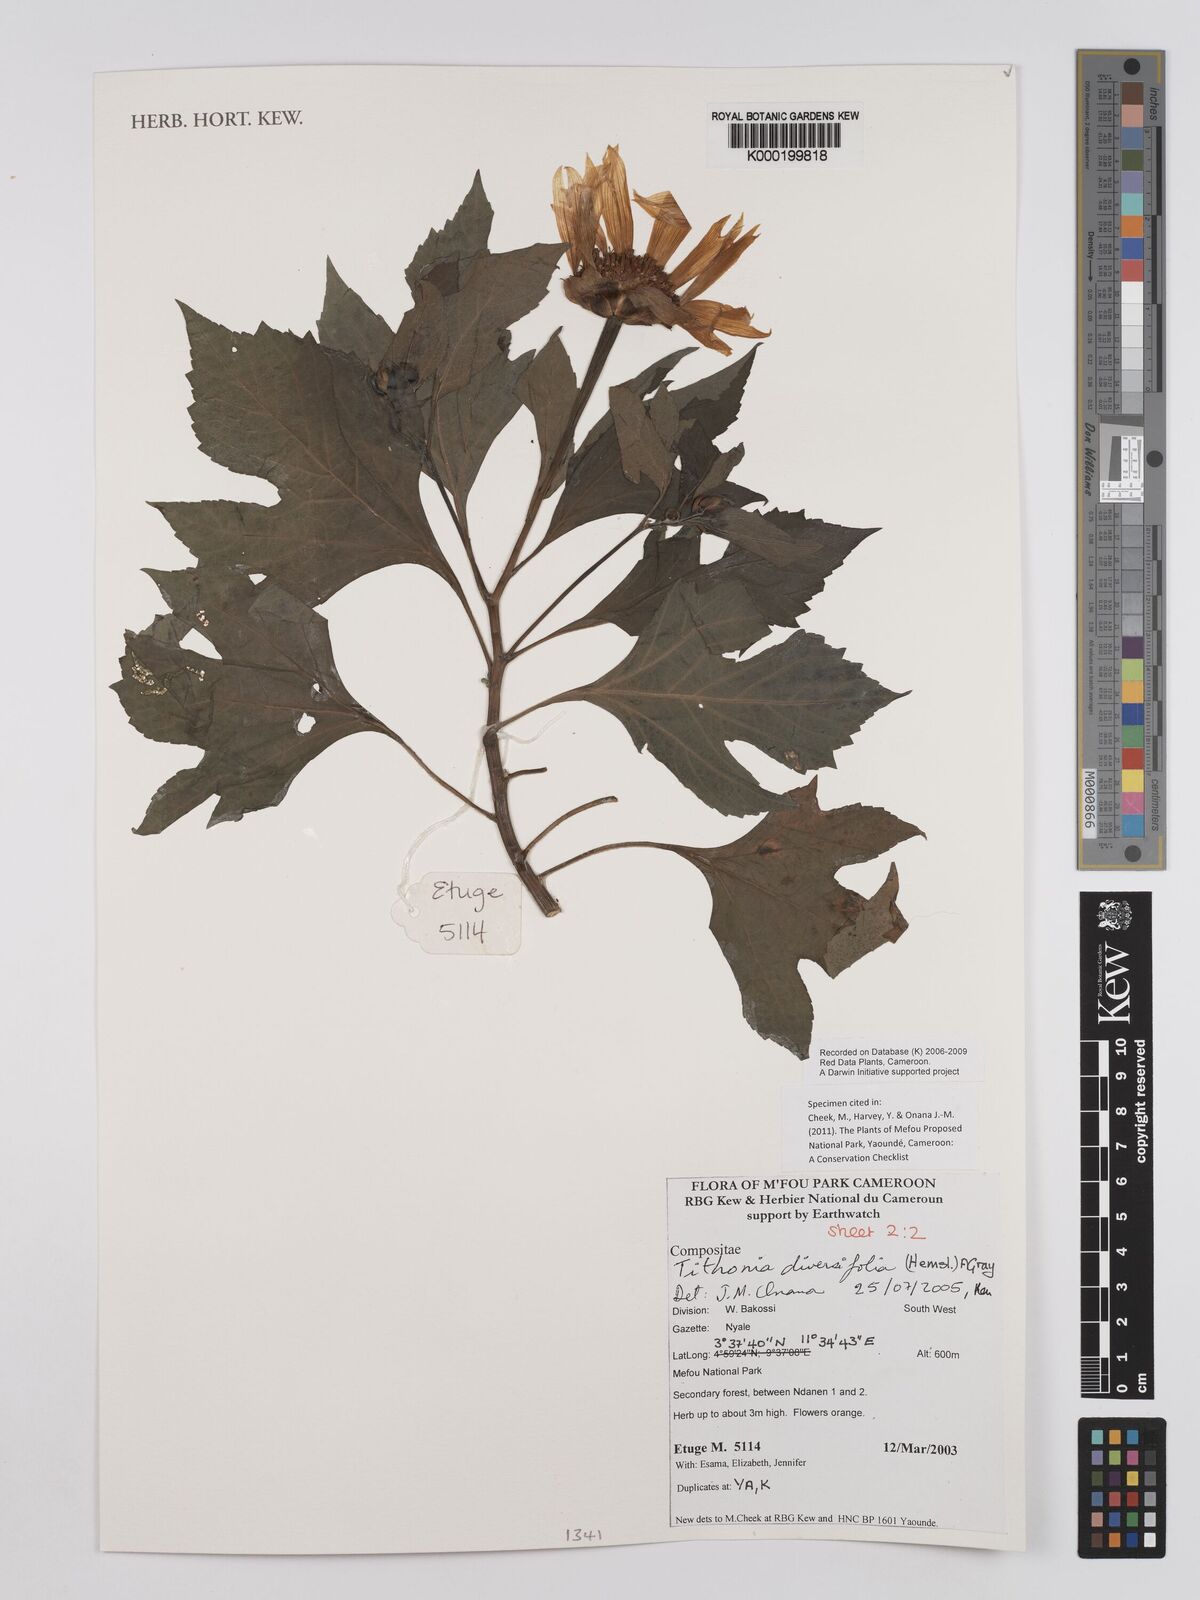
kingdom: Plantae
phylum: Tracheophyta
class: Magnoliopsida
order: Asterales
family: Asteraceae
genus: Tithonia
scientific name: Tithonia diversifolia
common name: Tree marigold
